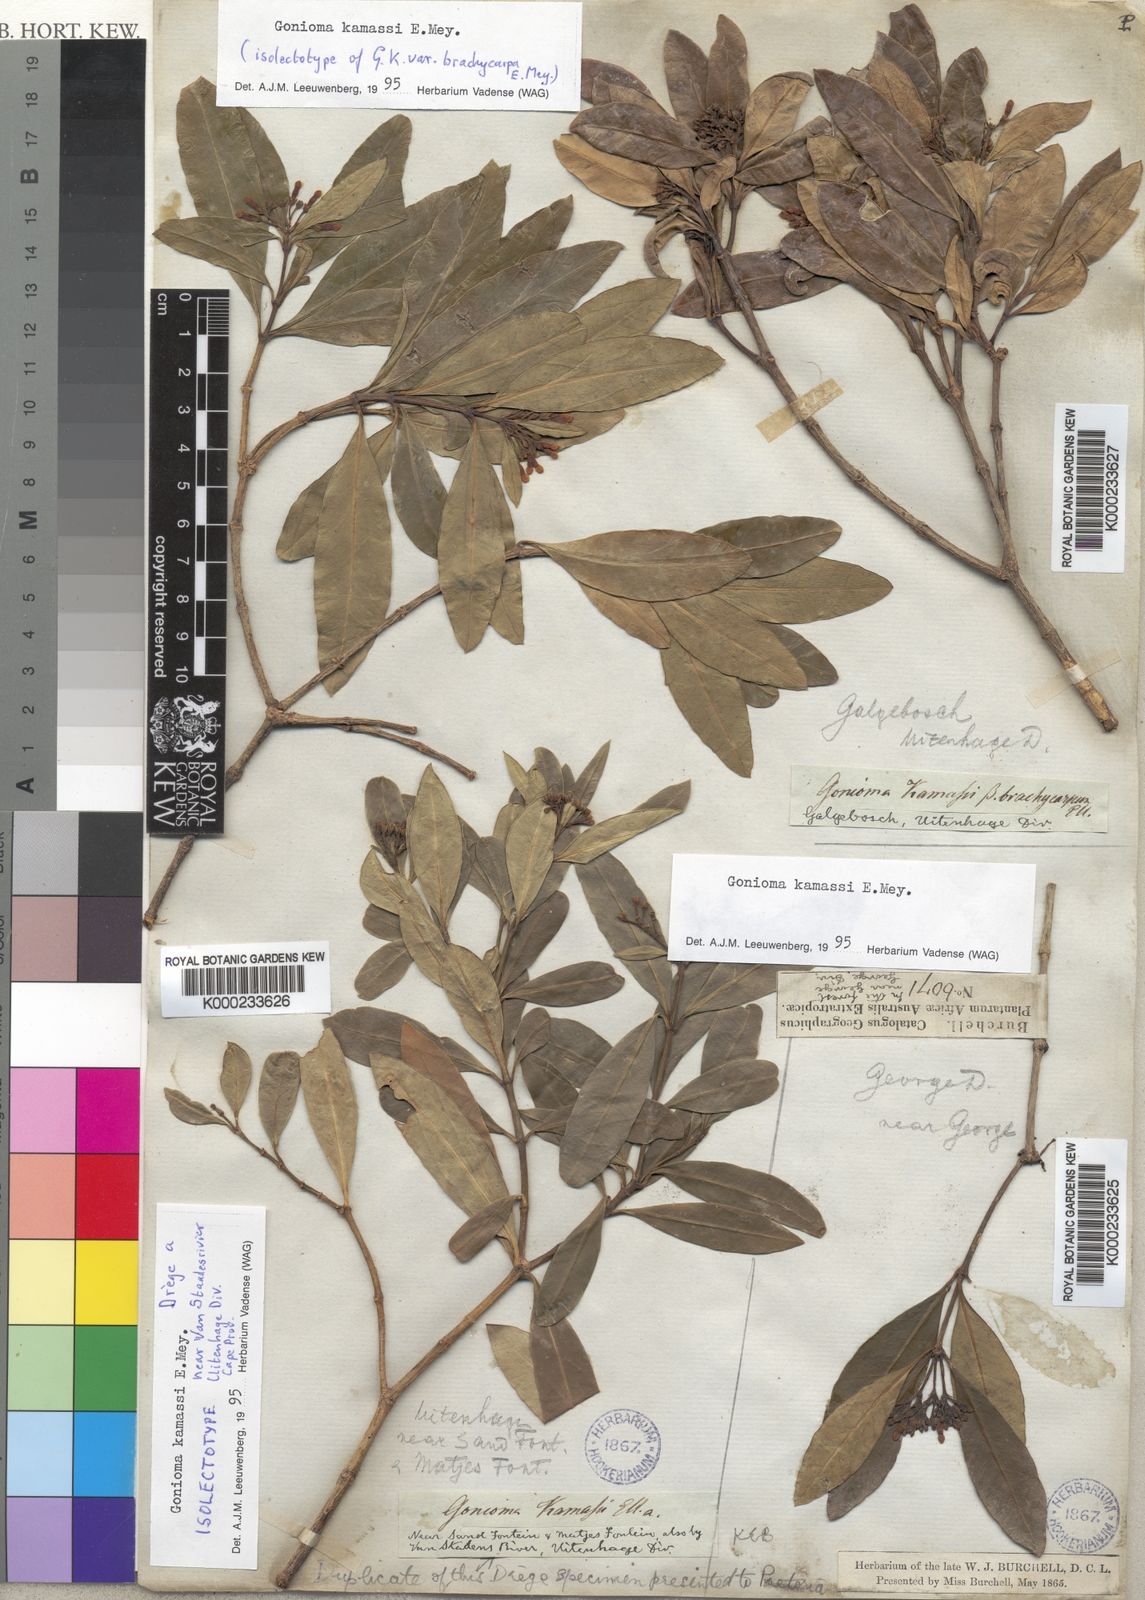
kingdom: Plantae
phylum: Tracheophyta
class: Magnoliopsida
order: Gentianales
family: Apocynaceae
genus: Gonioma
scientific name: Gonioma kamassi
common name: Kamassi
